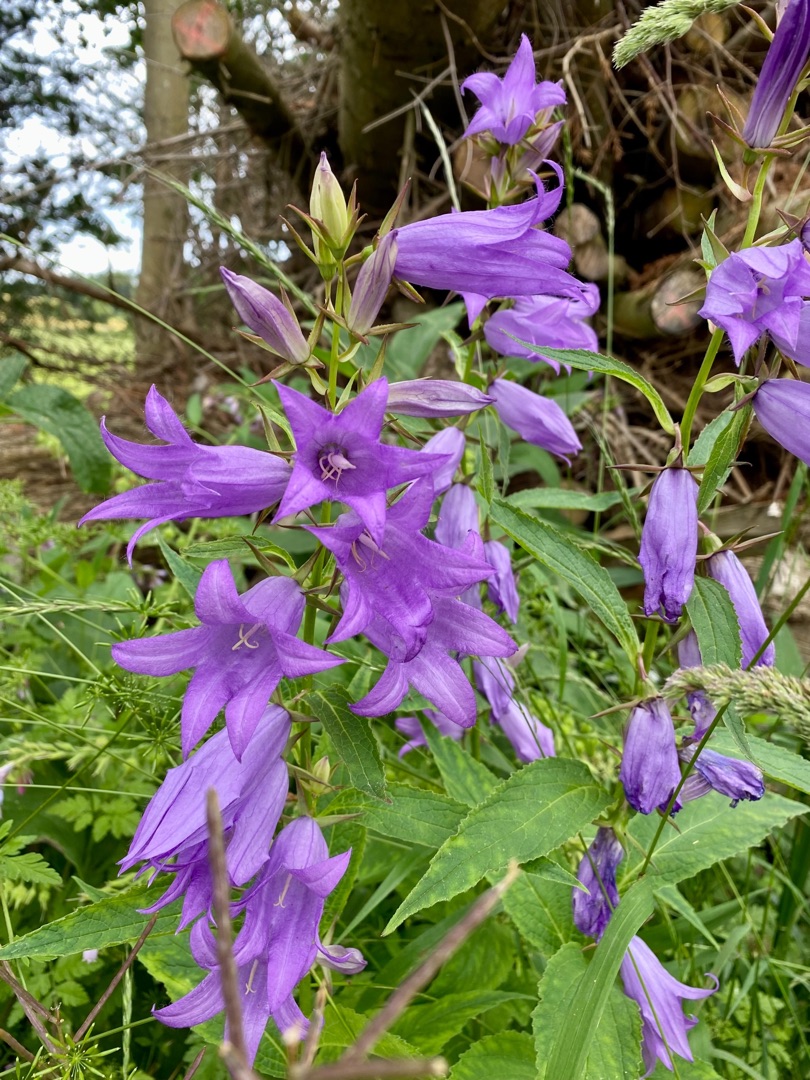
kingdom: Plantae
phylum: Tracheophyta
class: Magnoliopsida
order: Asterales
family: Campanulaceae
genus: Campanula
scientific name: Campanula latifolia
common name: Bredbladet klokke
